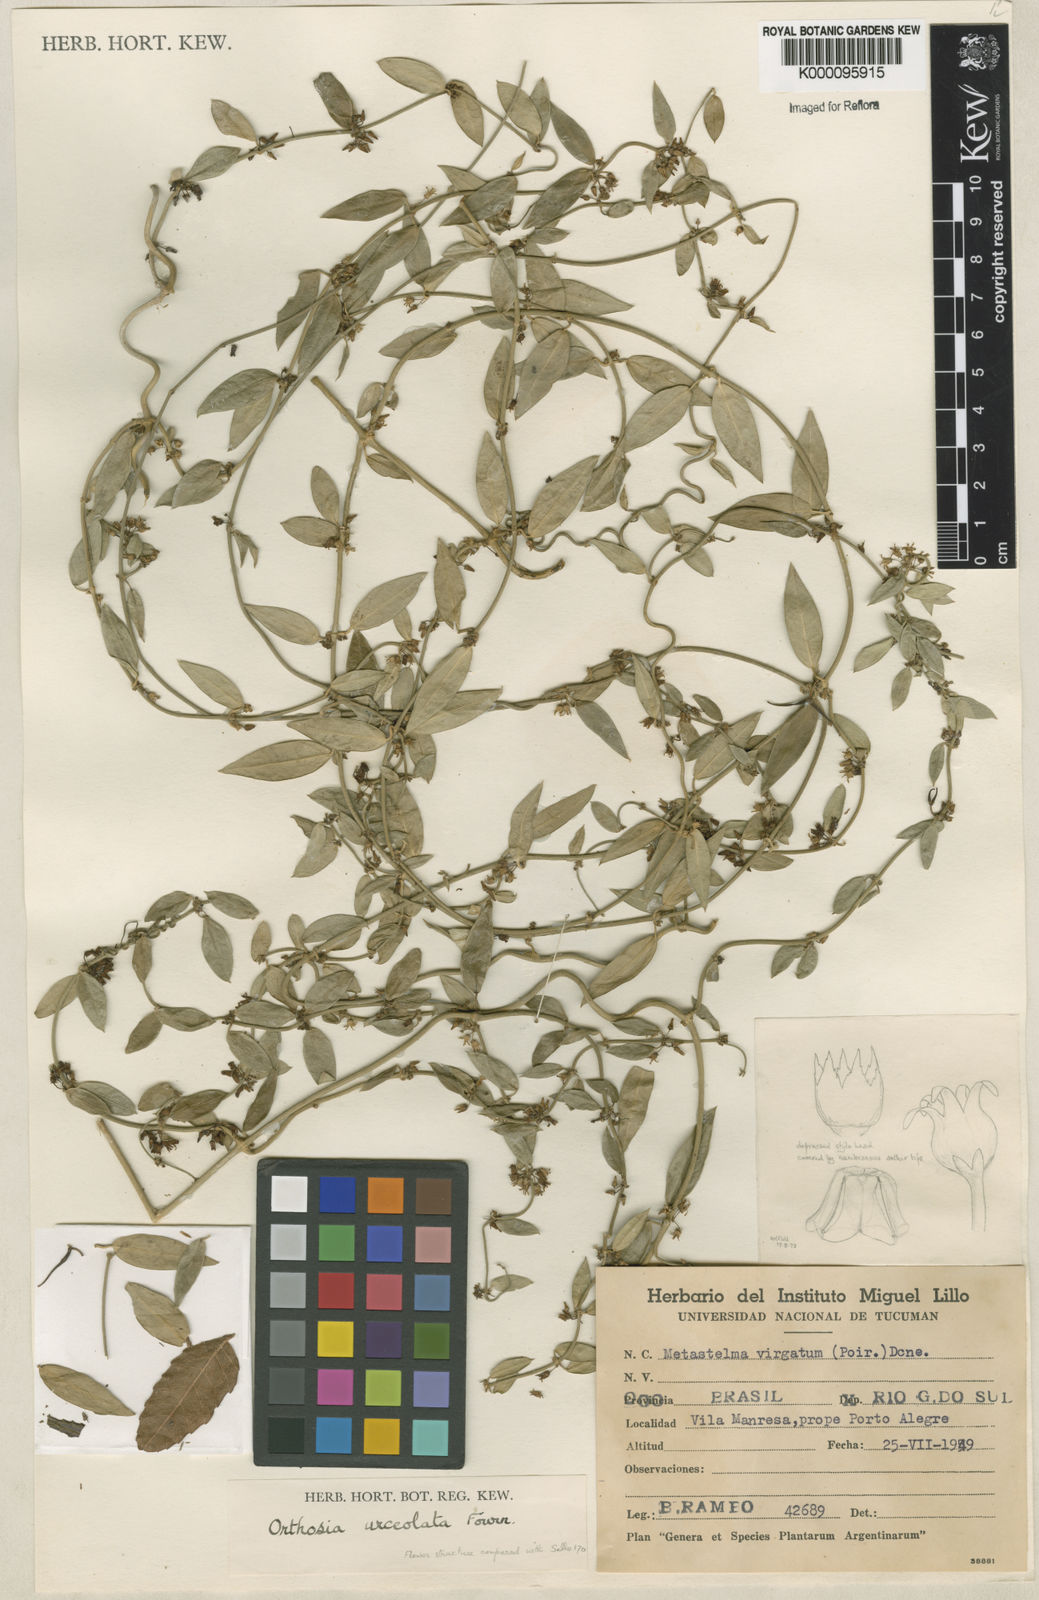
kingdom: Plantae
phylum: Tracheophyta
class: Magnoliopsida
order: Gentianales
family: Apocynaceae
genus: Orthosia
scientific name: Orthosia congesta
